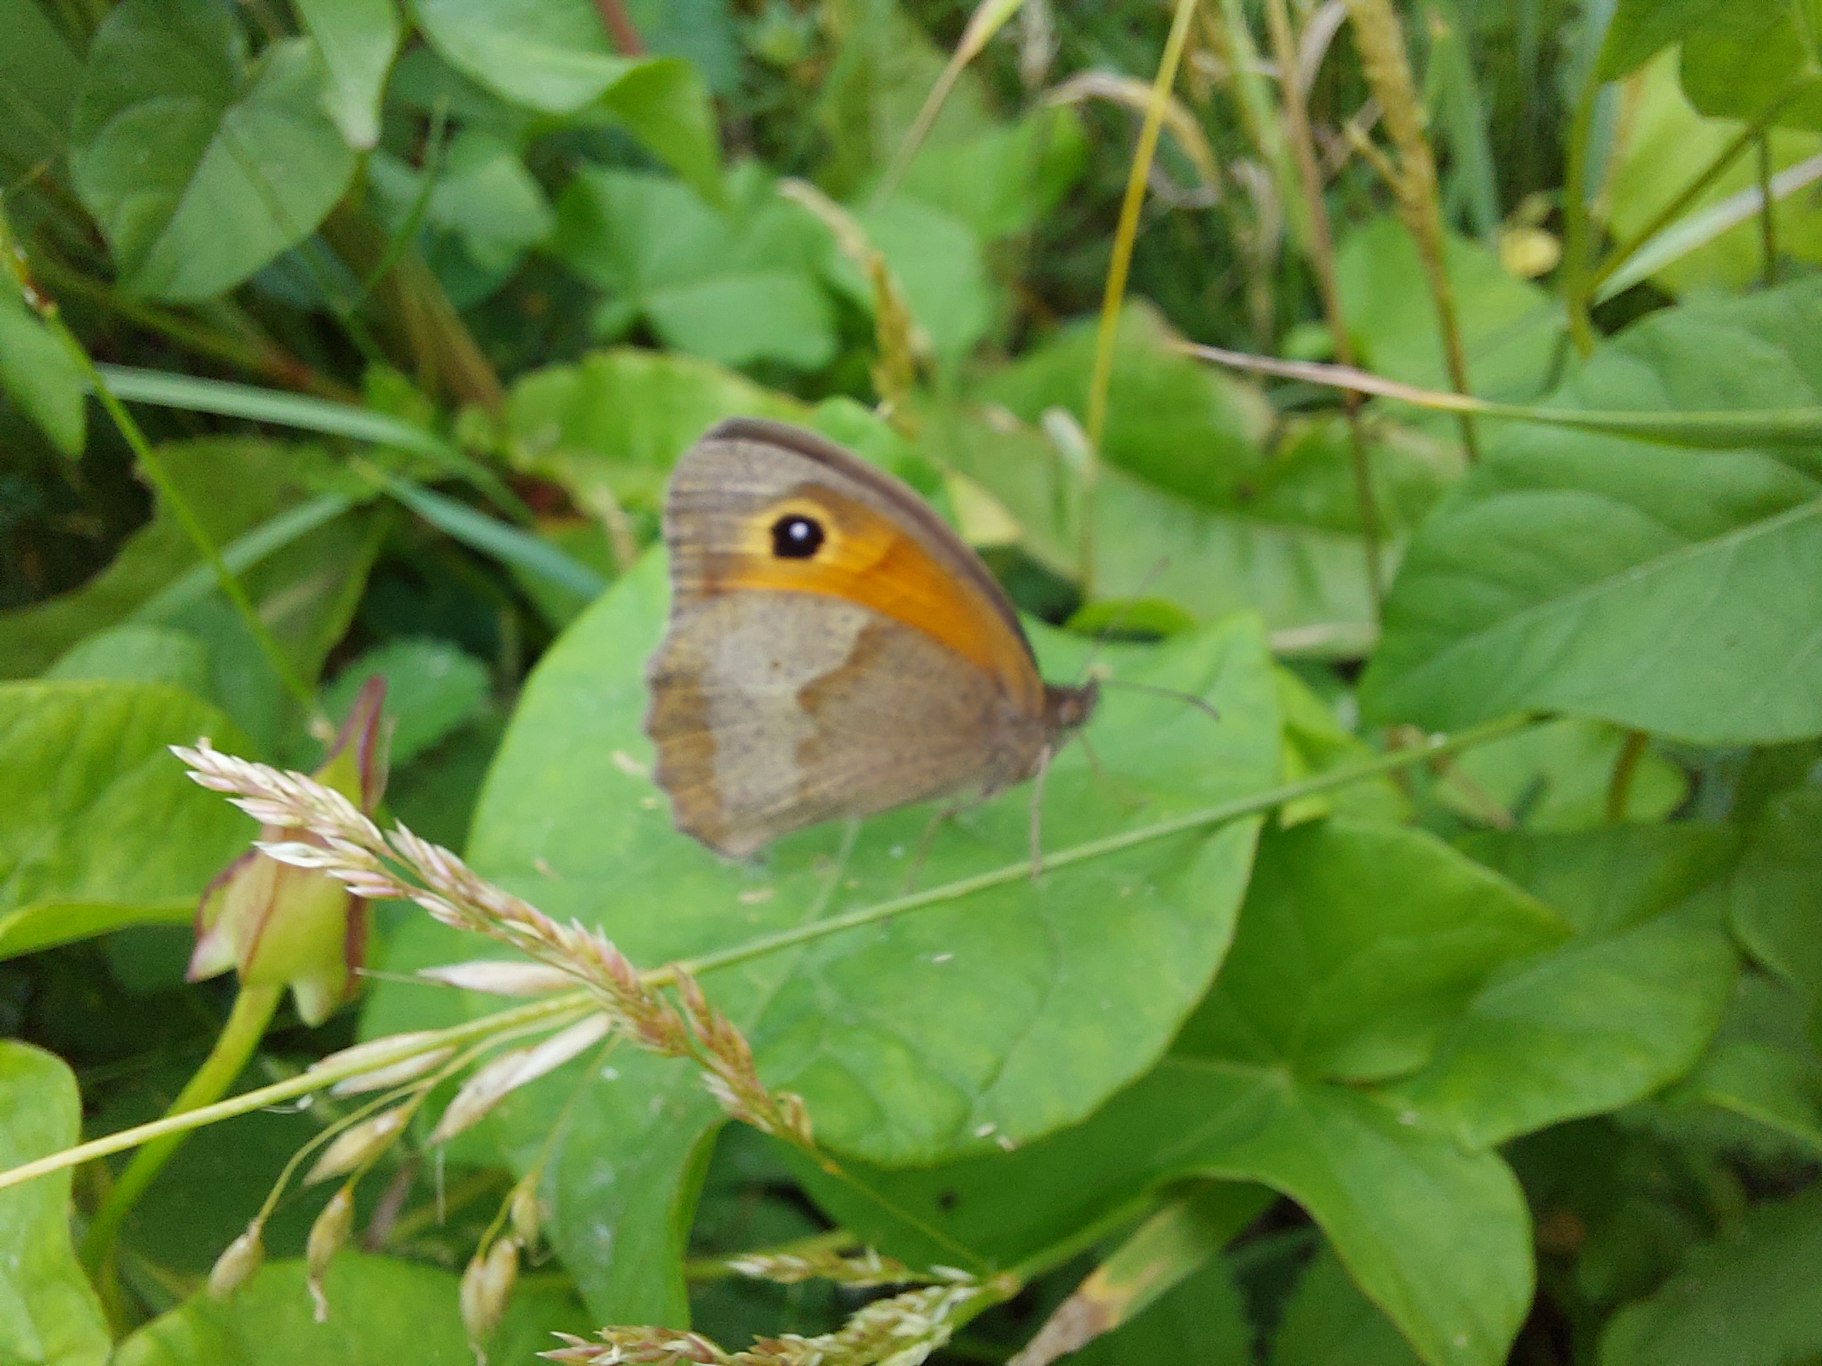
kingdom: Animalia
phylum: Arthropoda
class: Insecta
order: Lepidoptera
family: Nymphalidae
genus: Maniola
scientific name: Maniola jurtina
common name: Græsrandøje
